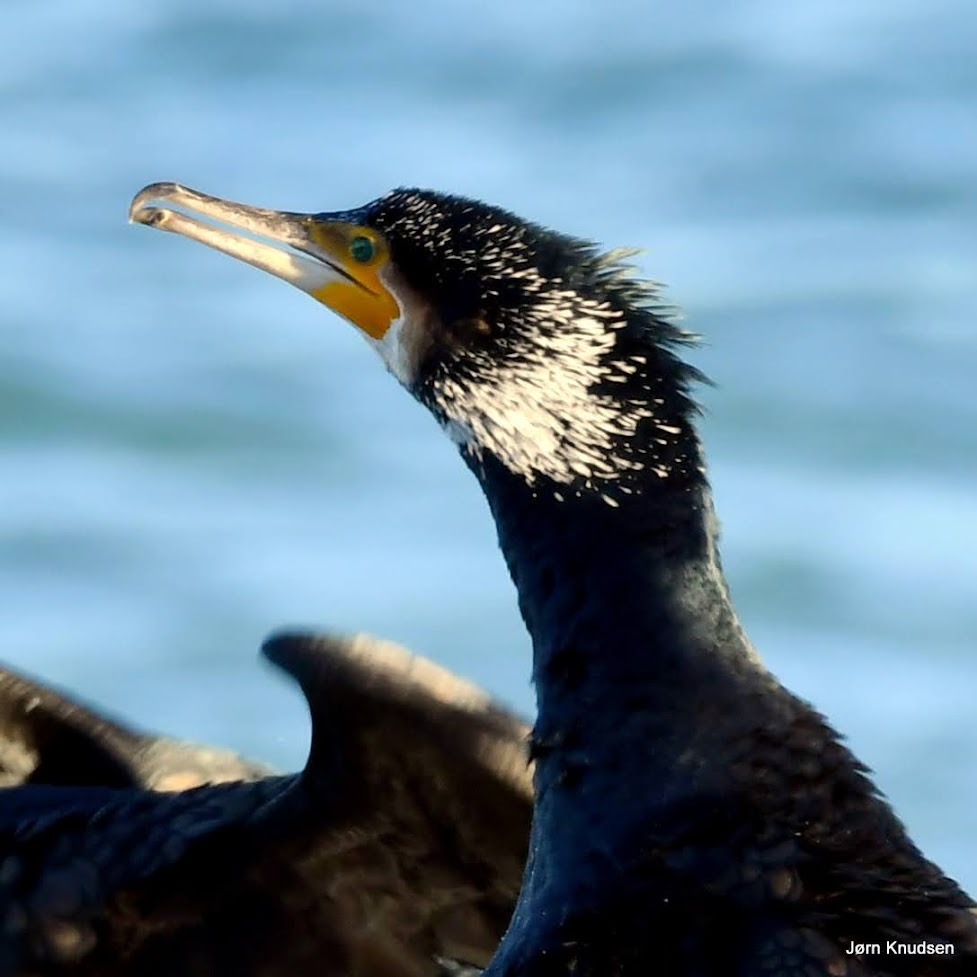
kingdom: Animalia
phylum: Chordata
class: Aves
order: Suliformes
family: Phalacrocoracidae
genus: Phalacrocorax
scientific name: Phalacrocorax carbo
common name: Skarv
